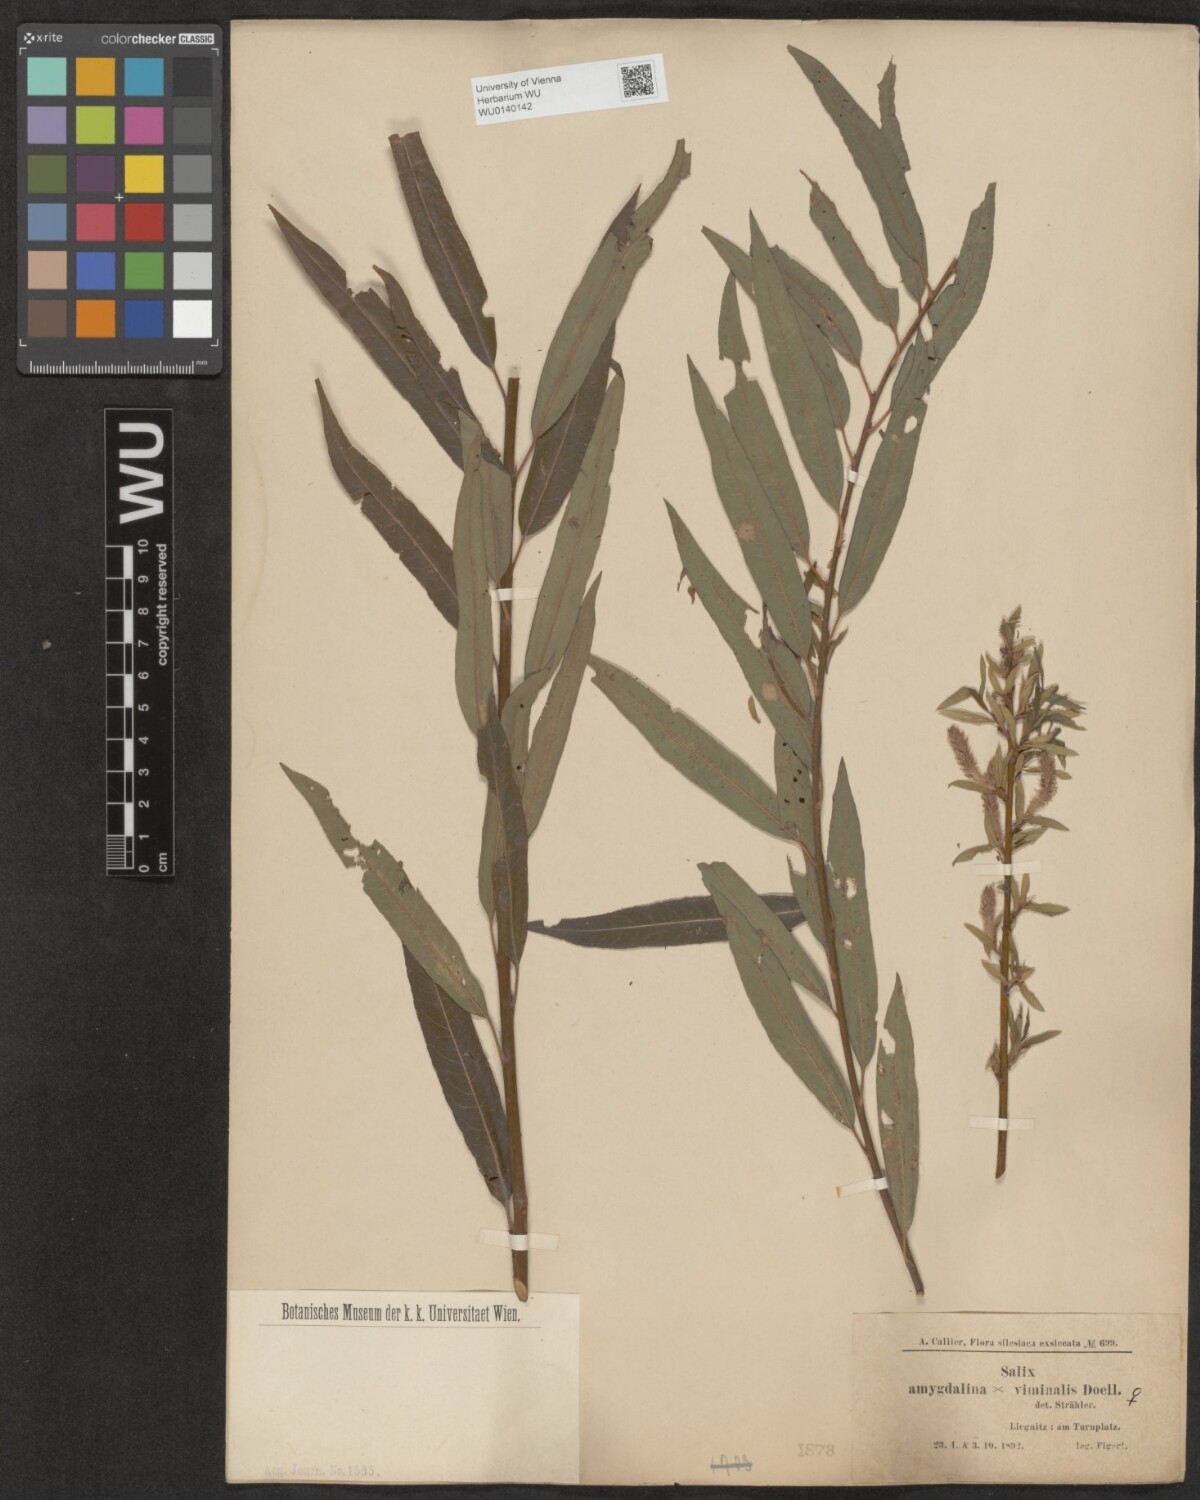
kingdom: Plantae
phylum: Tracheophyta
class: Magnoliopsida
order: Malpighiales
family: Salicaceae
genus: Salix
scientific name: Salix mollissima
